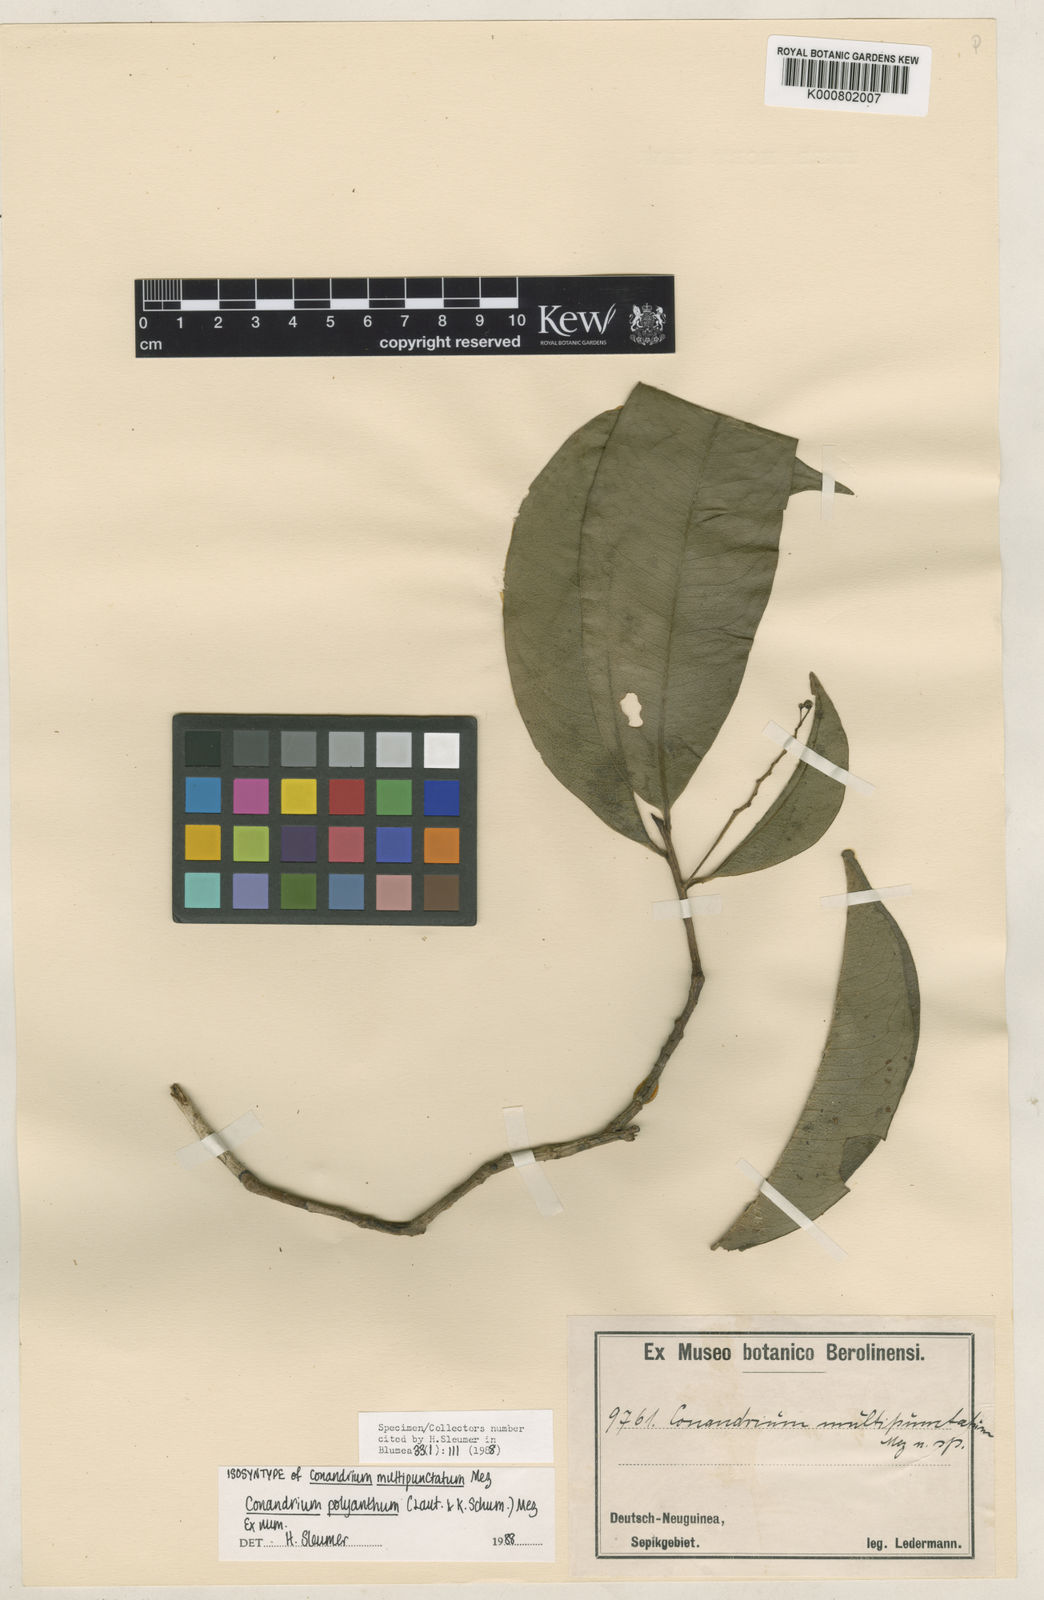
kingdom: Plantae
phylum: Tracheophyta
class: Magnoliopsida
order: Ericales
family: Primulaceae
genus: Conandrium
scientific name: Conandrium polyanthum
